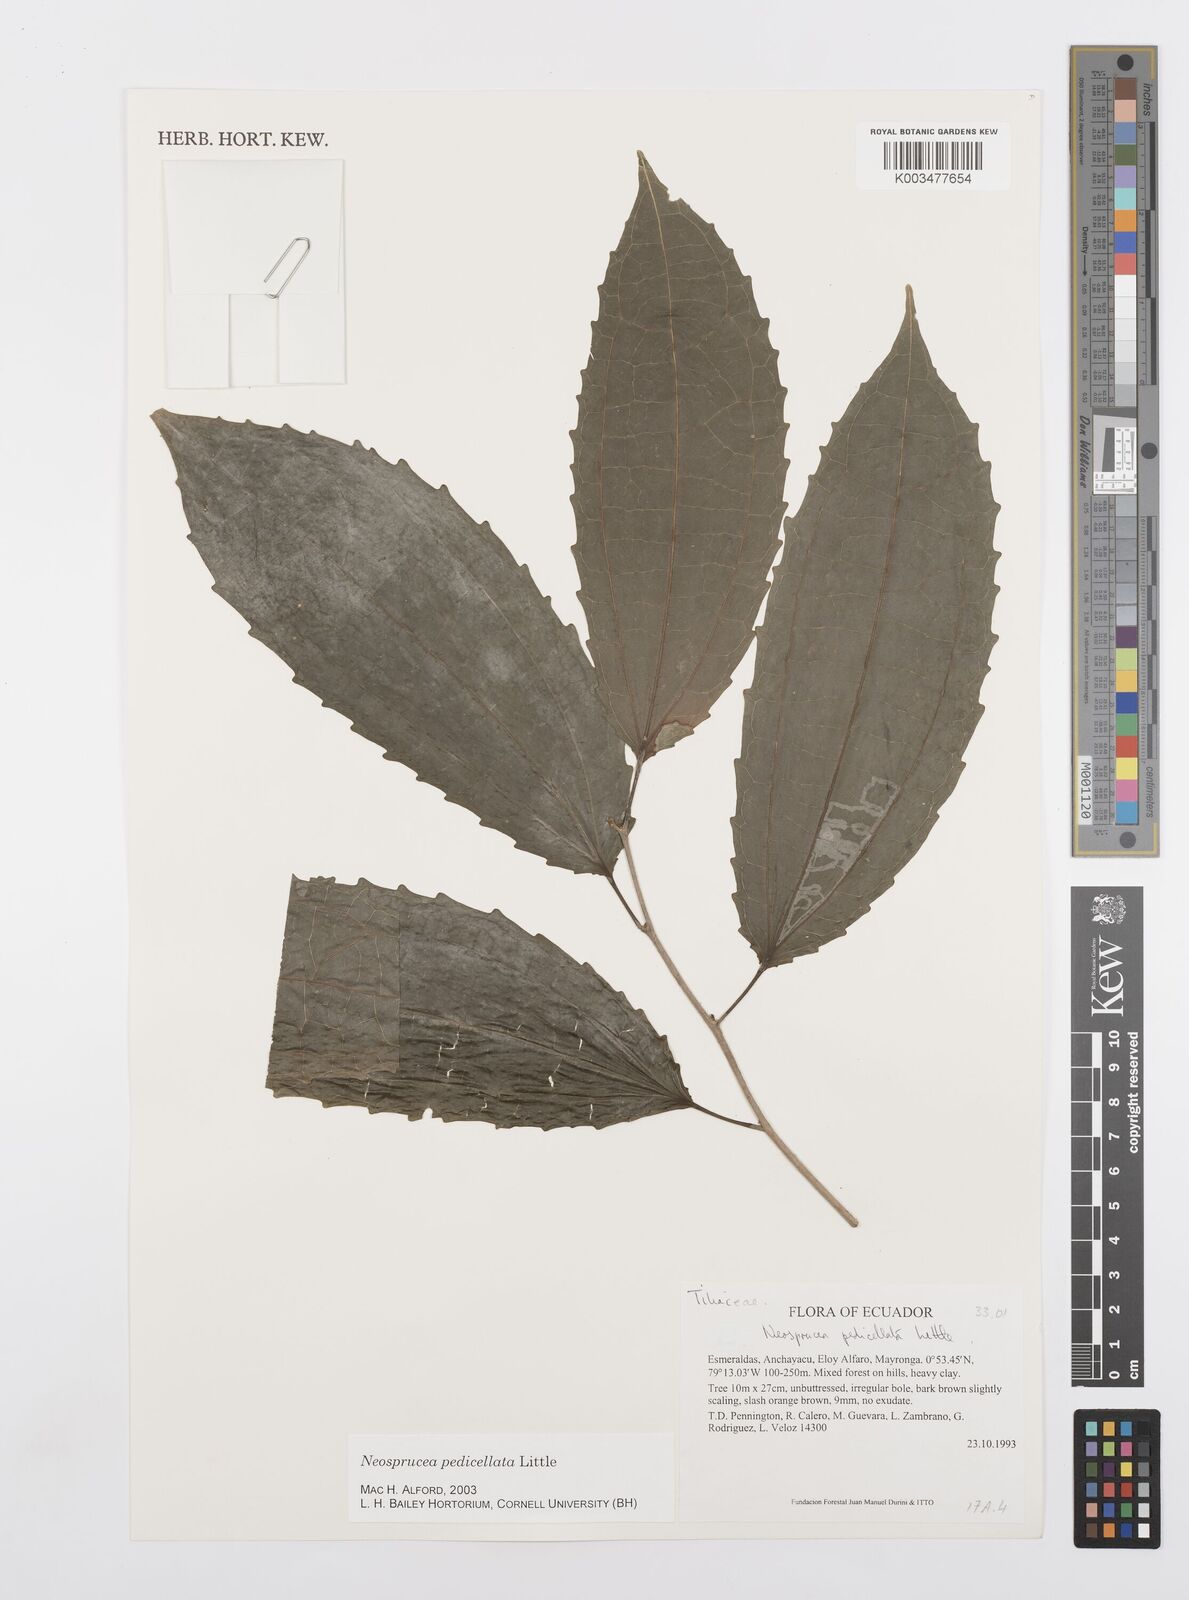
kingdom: Plantae
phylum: Tracheophyta
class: Magnoliopsida
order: Malpighiales
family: Salicaceae
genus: Neosprucea
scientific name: Neosprucea pedicellata
